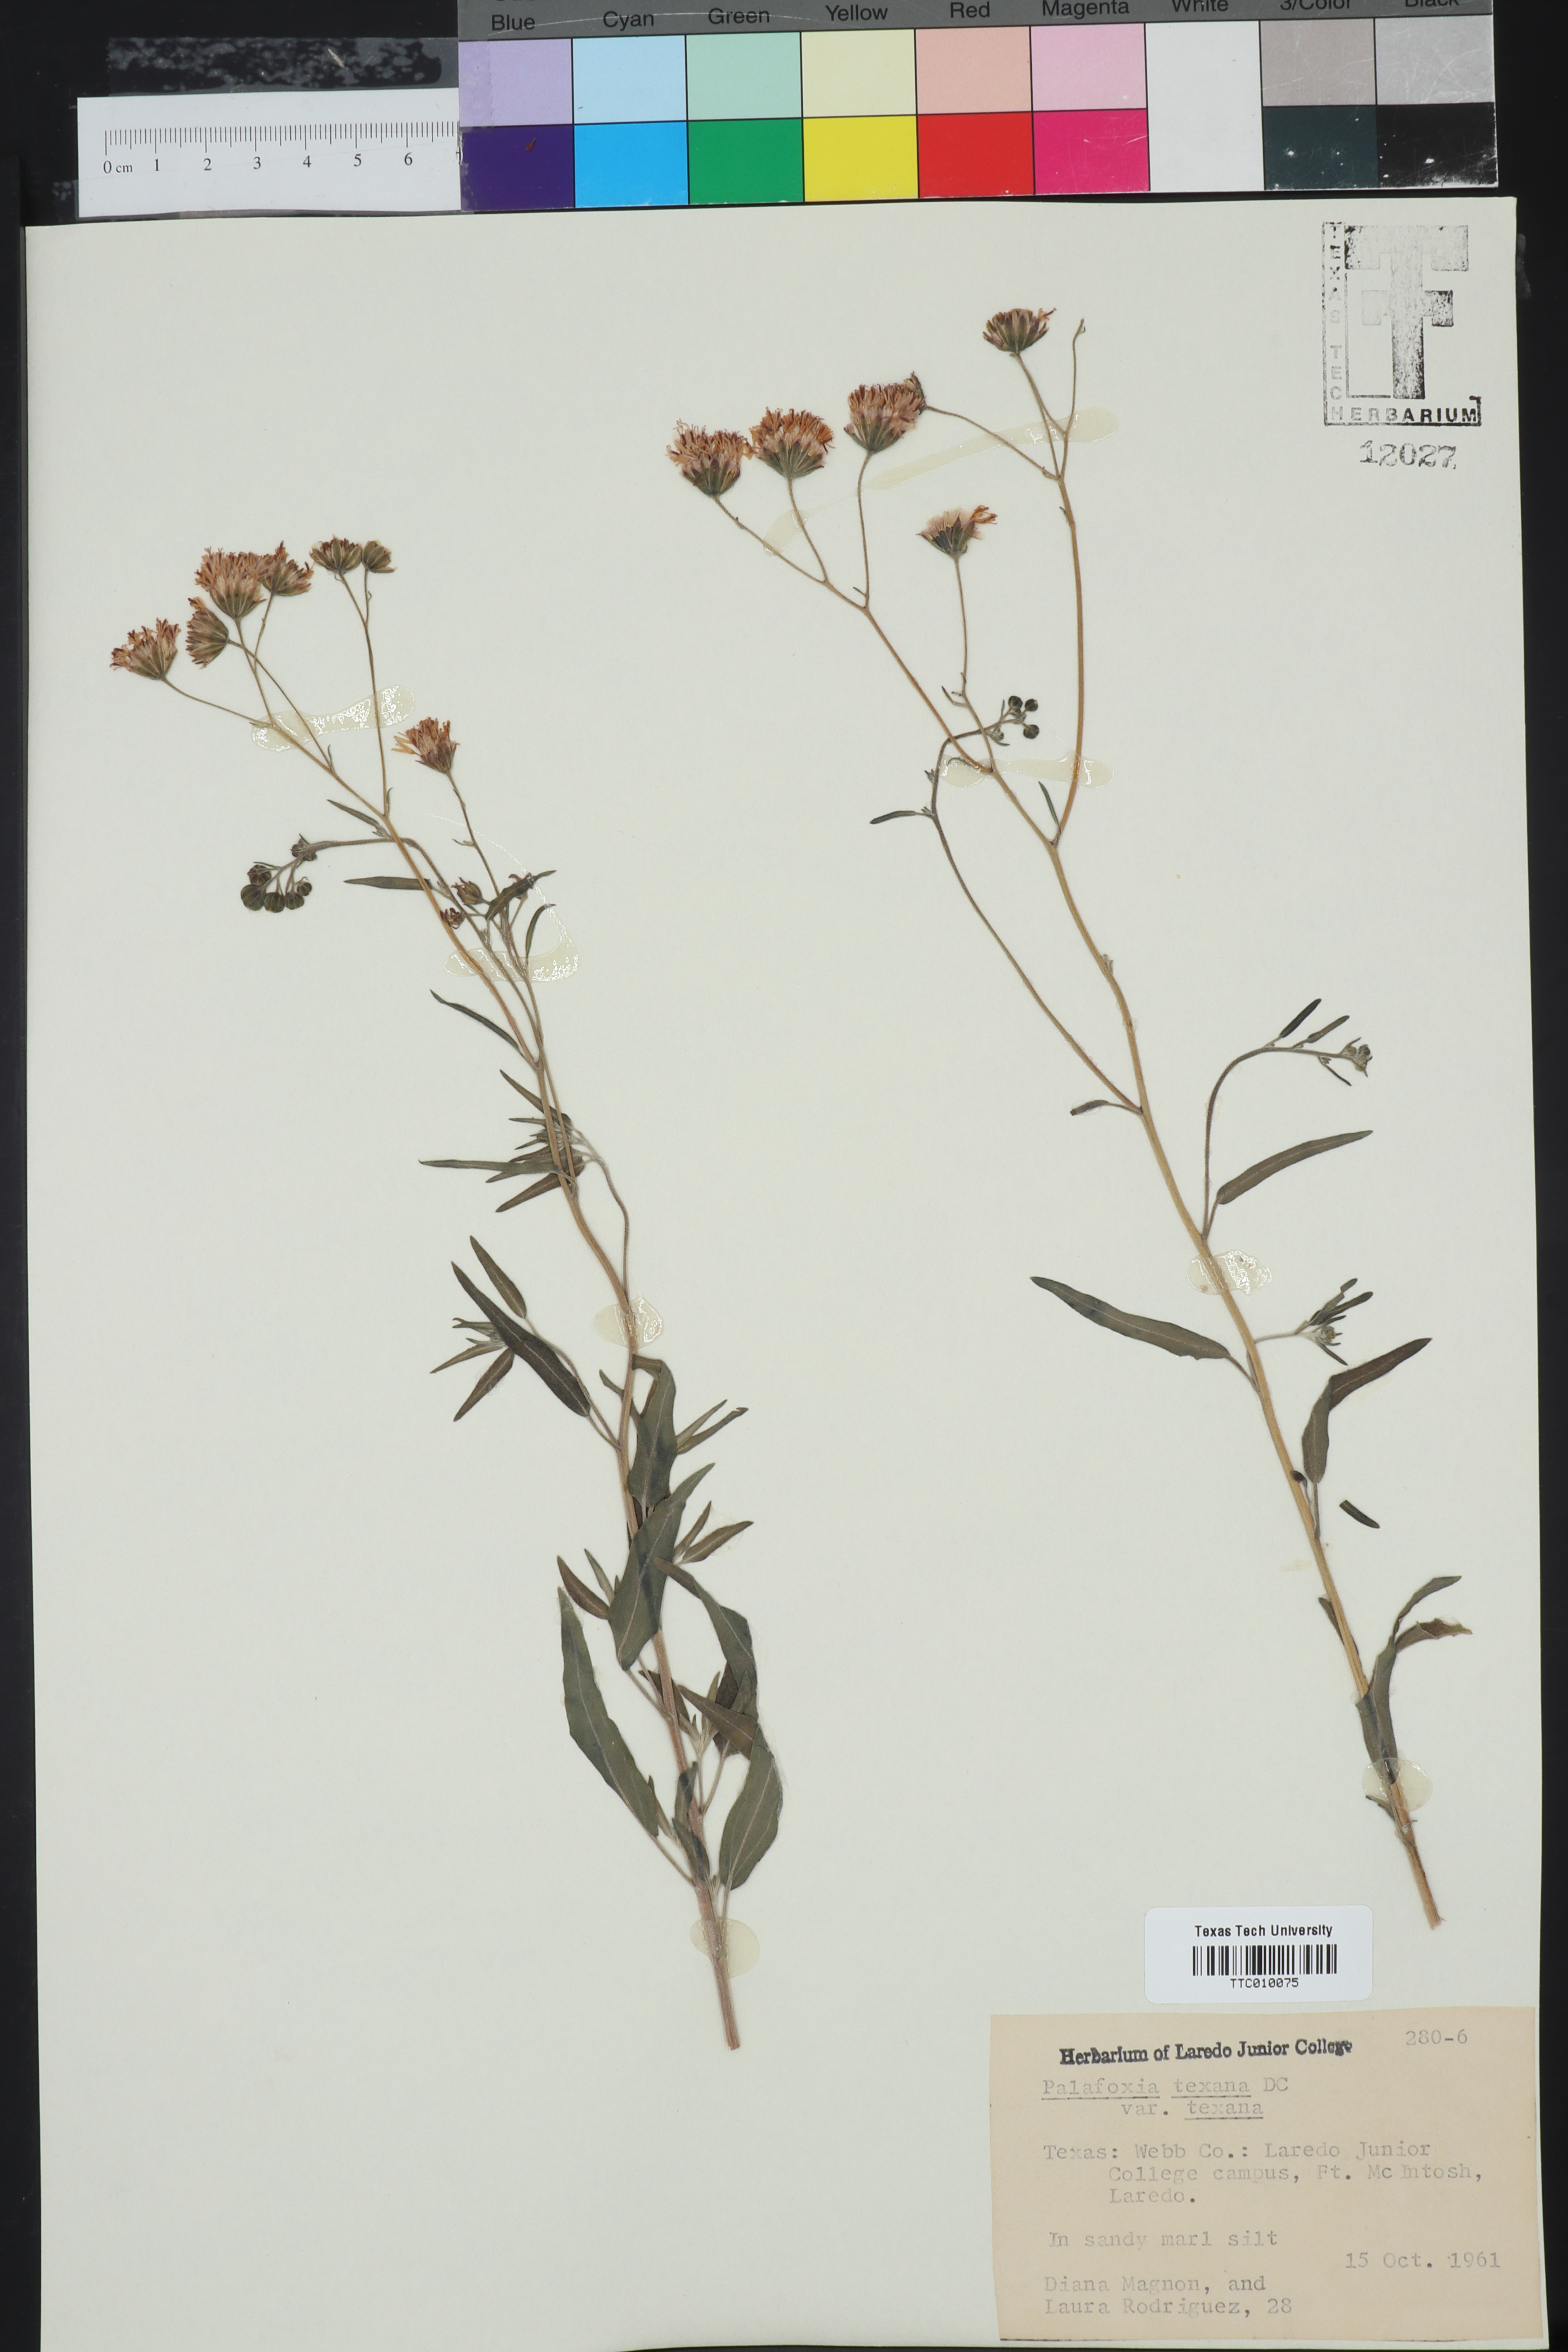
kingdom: Plantae
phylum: Tracheophyta
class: Magnoliopsida
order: Asterales
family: Asteraceae
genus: Palafoxia
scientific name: Palafoxia texana
